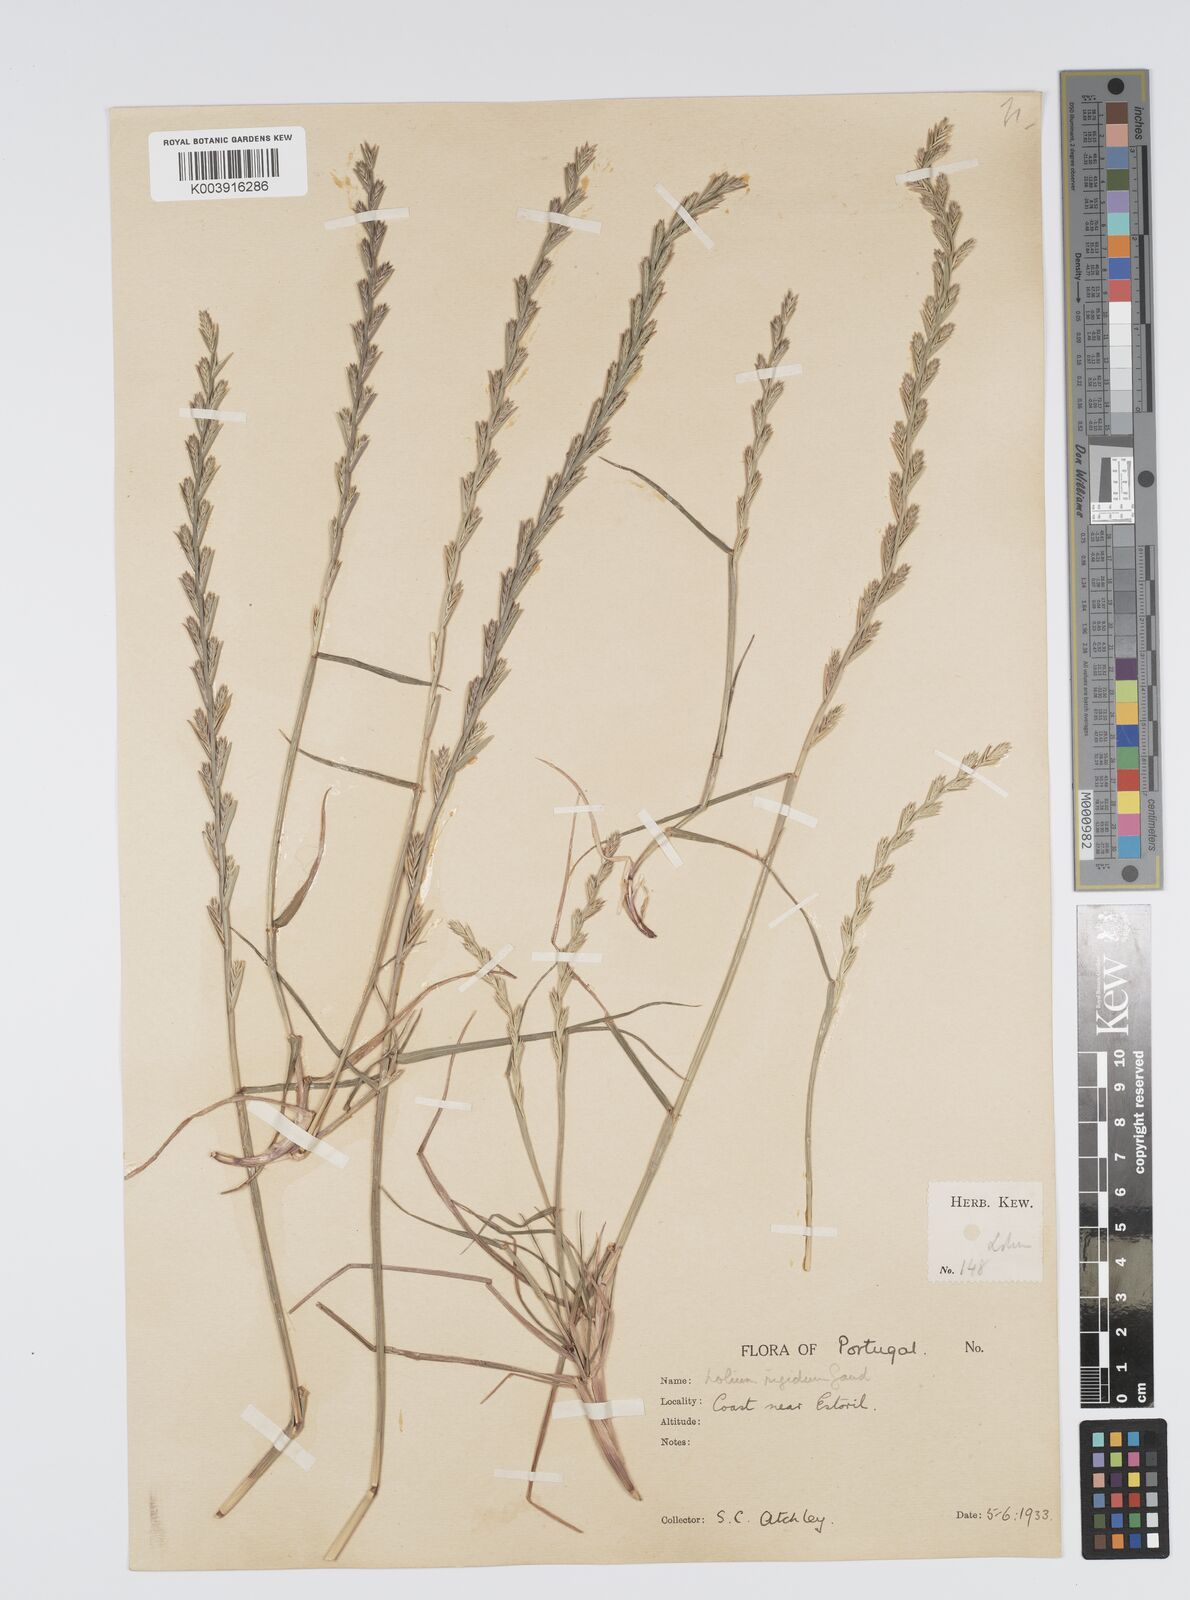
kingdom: Plantae
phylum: Tracheophyta
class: Liliopsida
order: Poales
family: Poaceae
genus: Lolium
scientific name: Lolium rigidum
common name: Wimmera ryegrass
